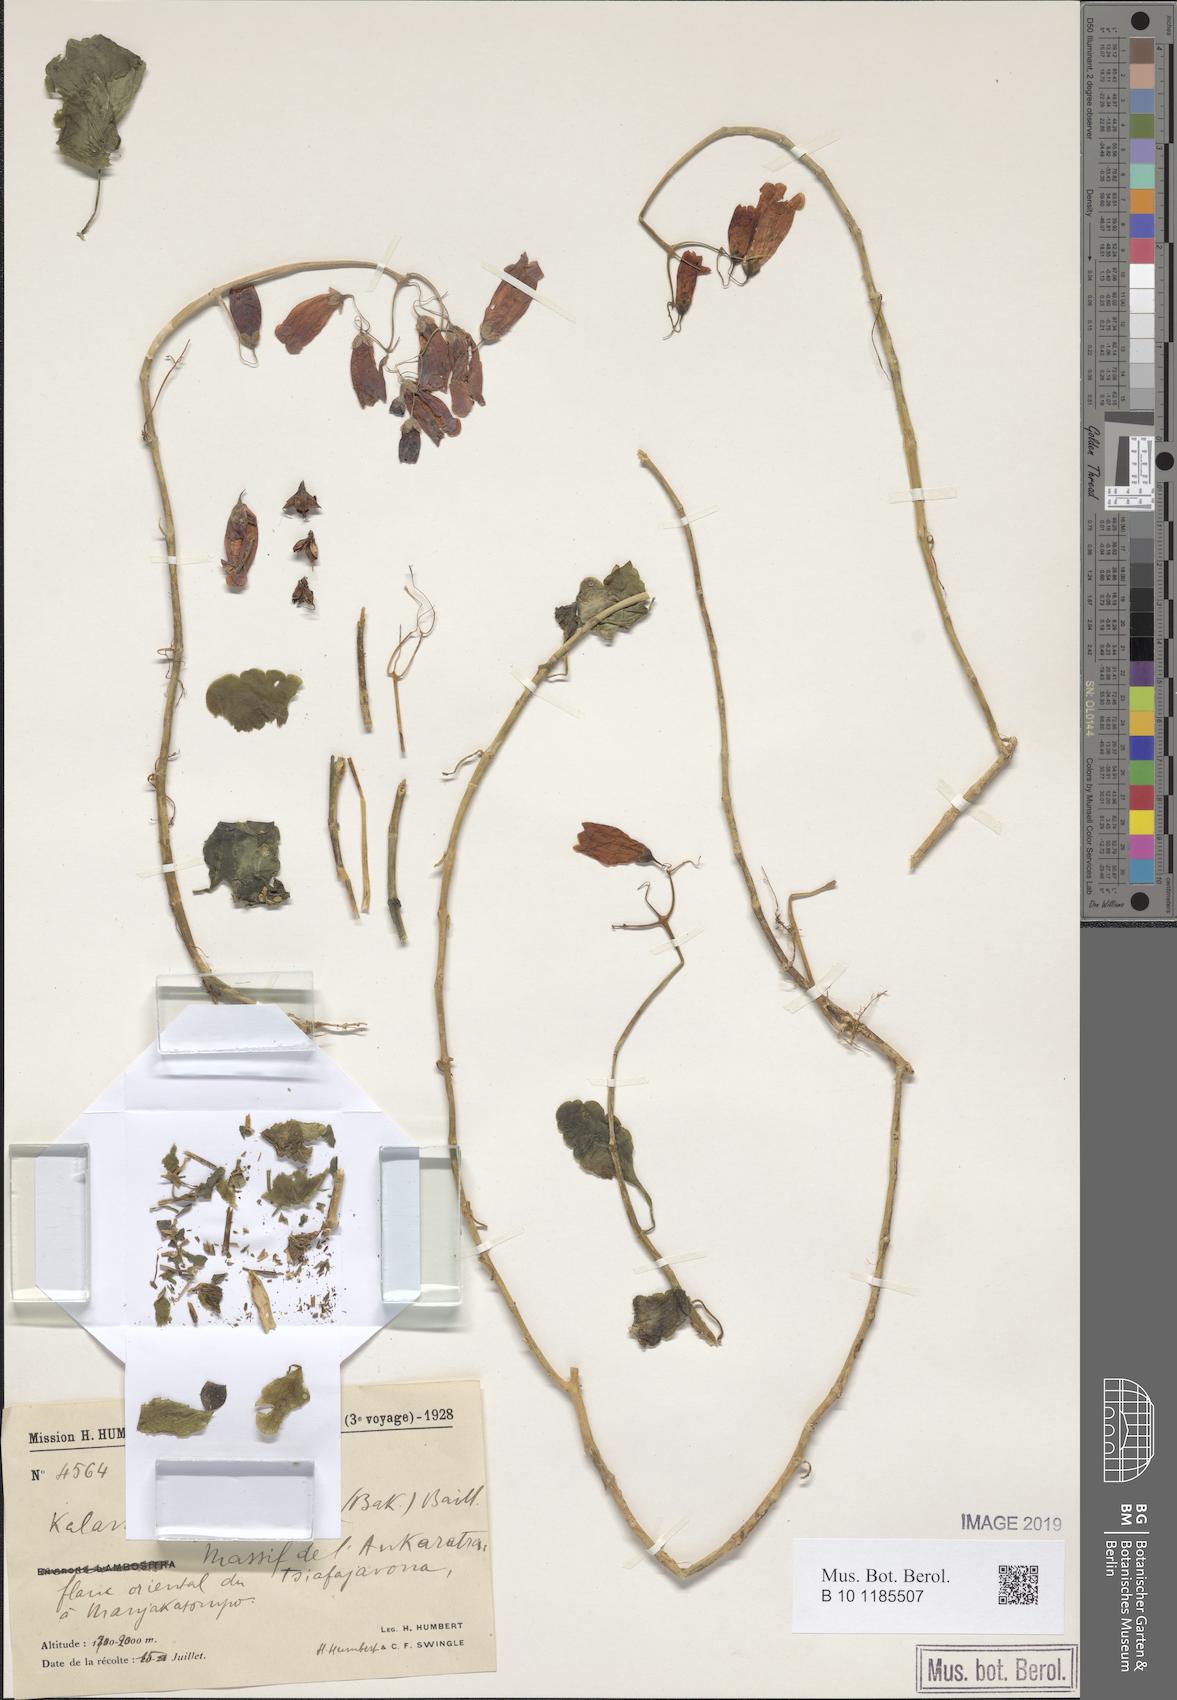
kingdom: Plantae
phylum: Tracheophyta
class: Magnoliopsida
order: Saxifragales
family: Crassulaceae
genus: Kalanchoe
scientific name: Kalanchoe gracilipes
